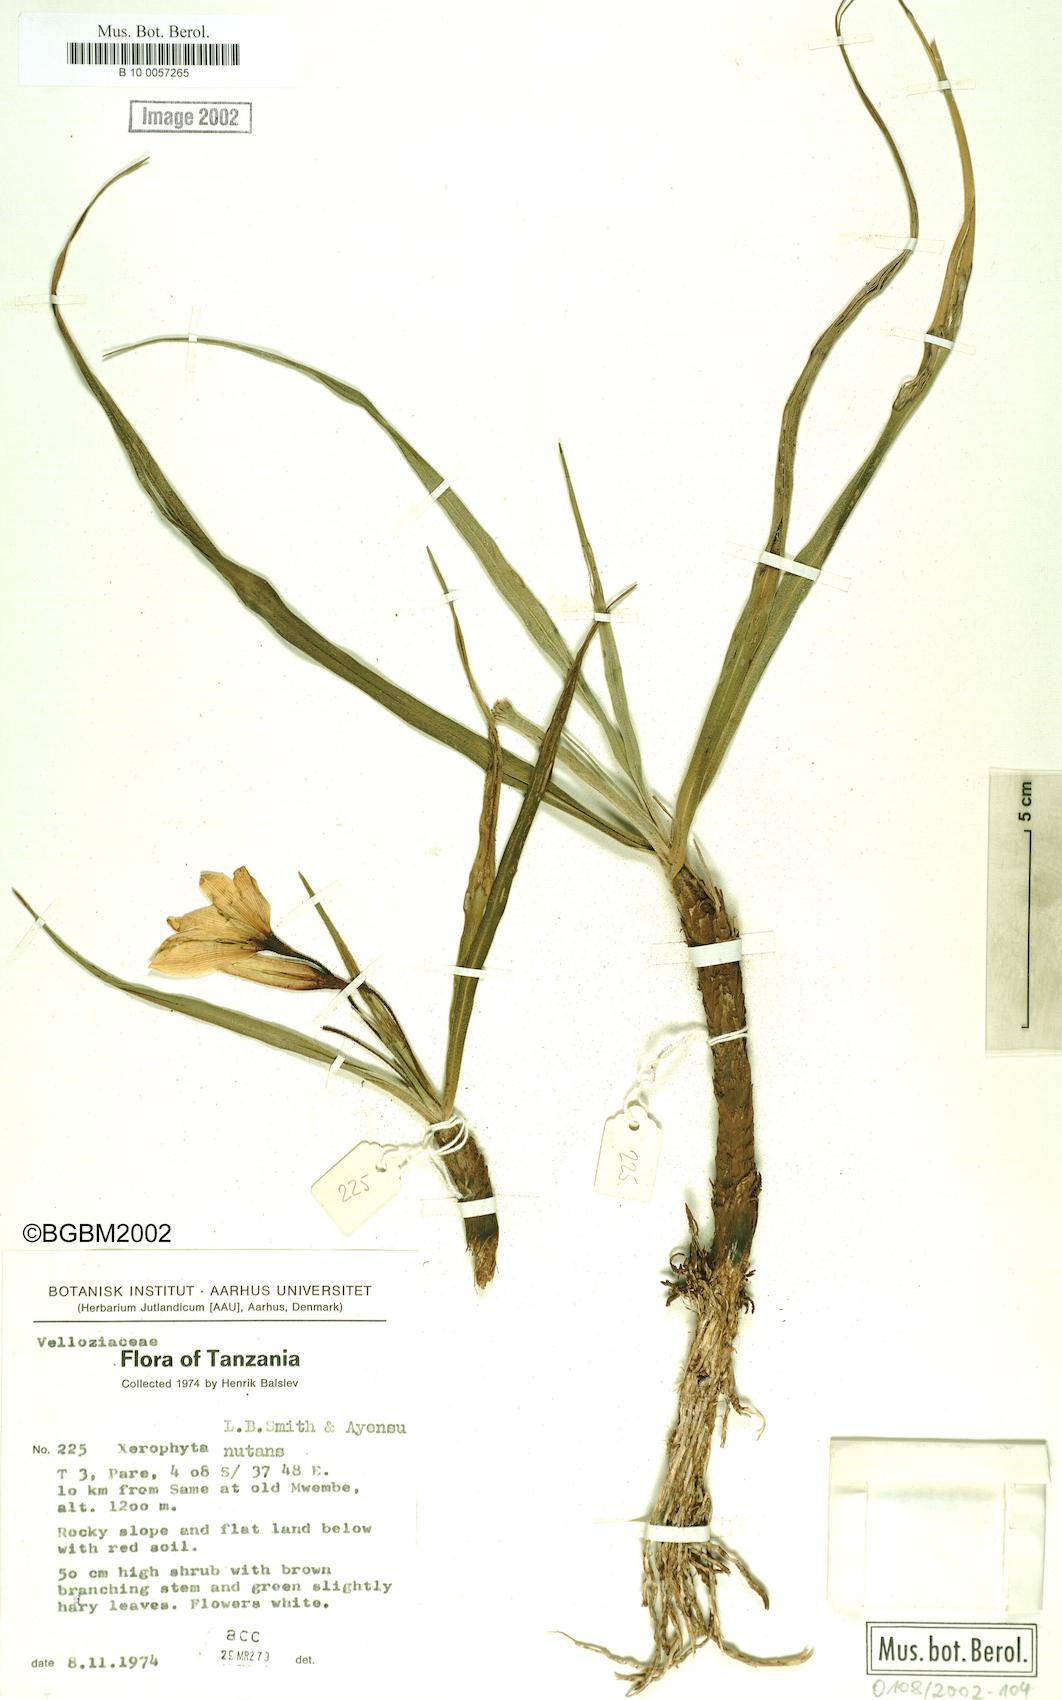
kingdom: Plantae
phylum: Tracheophyta
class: Liliopsida
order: Pandanales
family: Velloziaceae
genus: Xerophyta
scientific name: Xerophyta nutans
